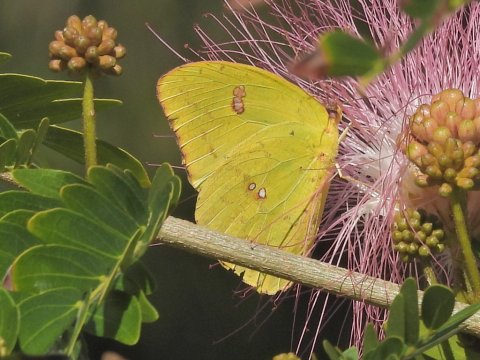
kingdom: Animalia
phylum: Arthropoda
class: Insecta
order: Lepidoptera
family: Pieridae
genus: Phoebis
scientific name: Phoebis sennae
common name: Cloudless Sulphur
